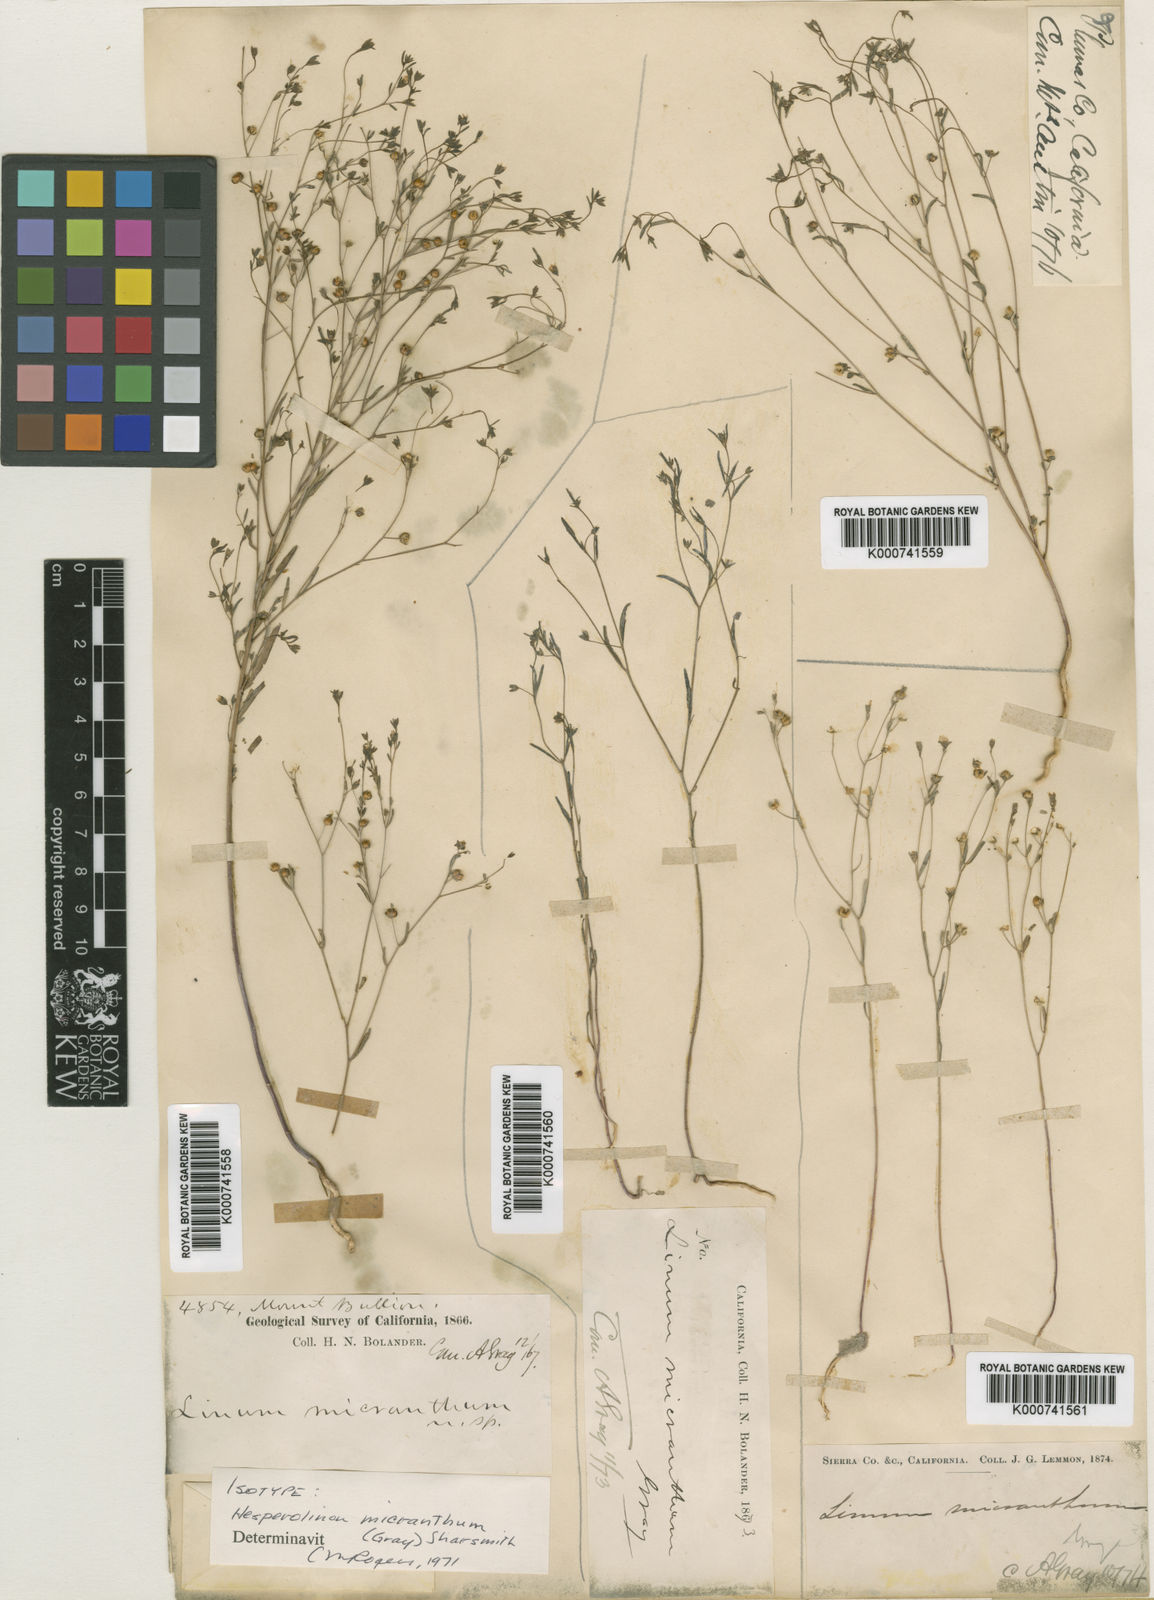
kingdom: Plantae
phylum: Tracheophyta
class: Magnoliopsida
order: Malpighiales
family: Linaceae
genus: Hesperolinon
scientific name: Hesperolinon micranthum
